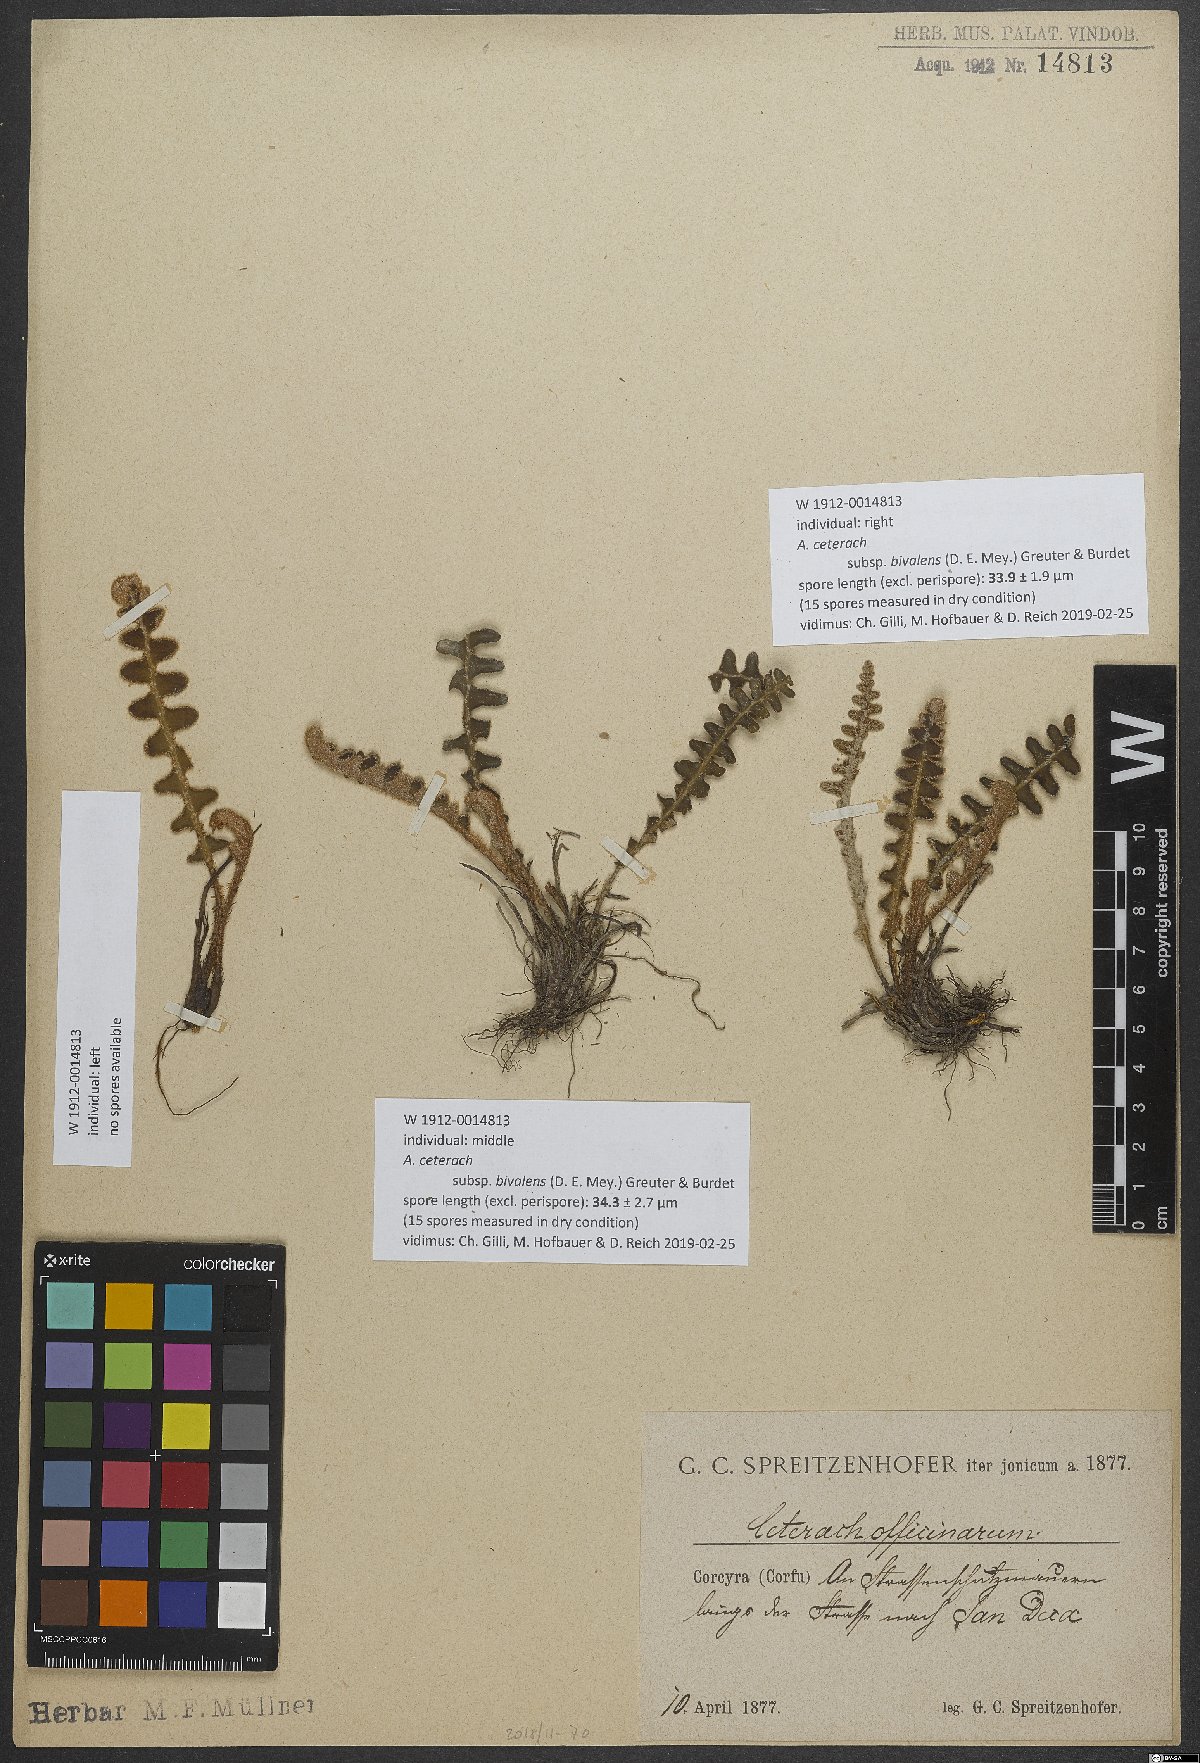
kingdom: Plantae
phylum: Tracheophyta
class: Polypodiopsida
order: Polypodiales
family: Aspleniaceae
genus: Asplenium
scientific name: Asplenium ceterach
